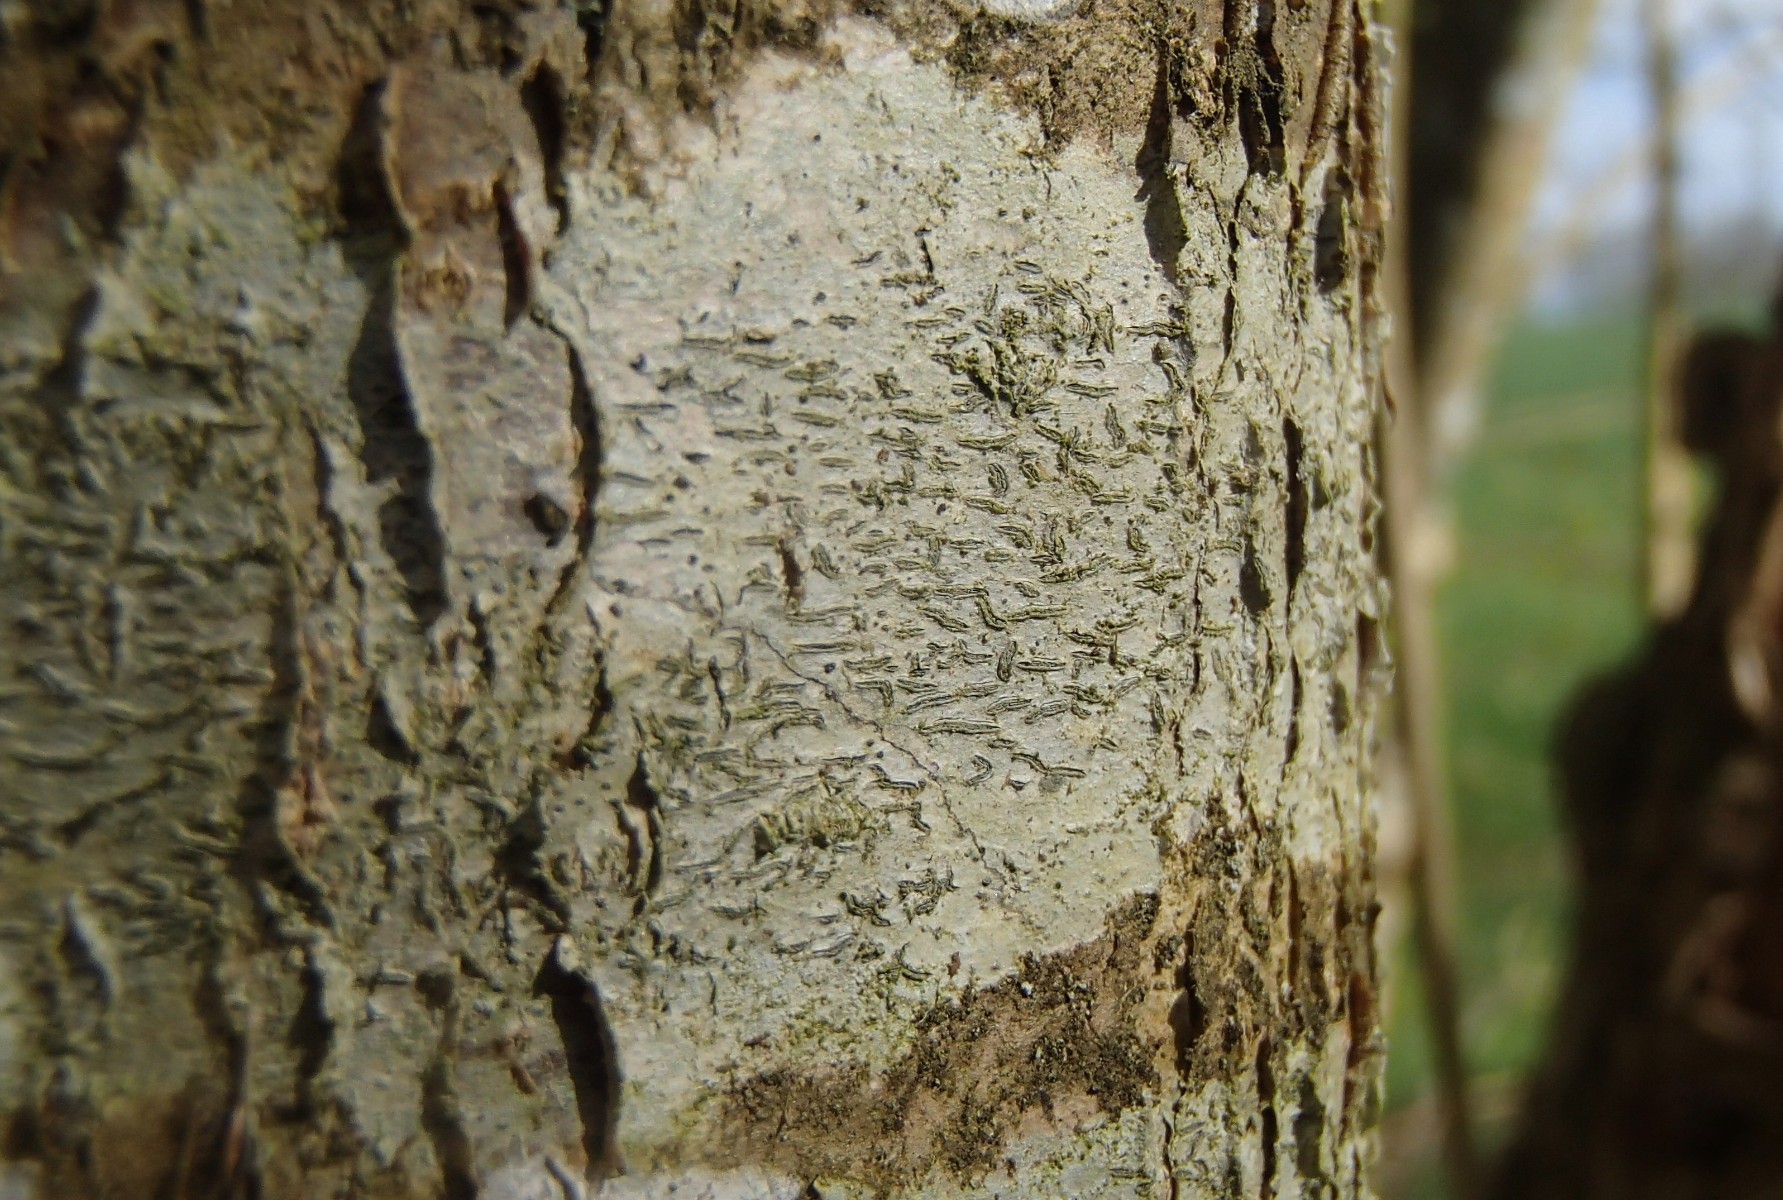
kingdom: Fungi
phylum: Ascomycota
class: Lecanoromycetes
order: Ostropales
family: Graphidaceae
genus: Graphis
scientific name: Graphis scripta
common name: almindelig skriftlav
